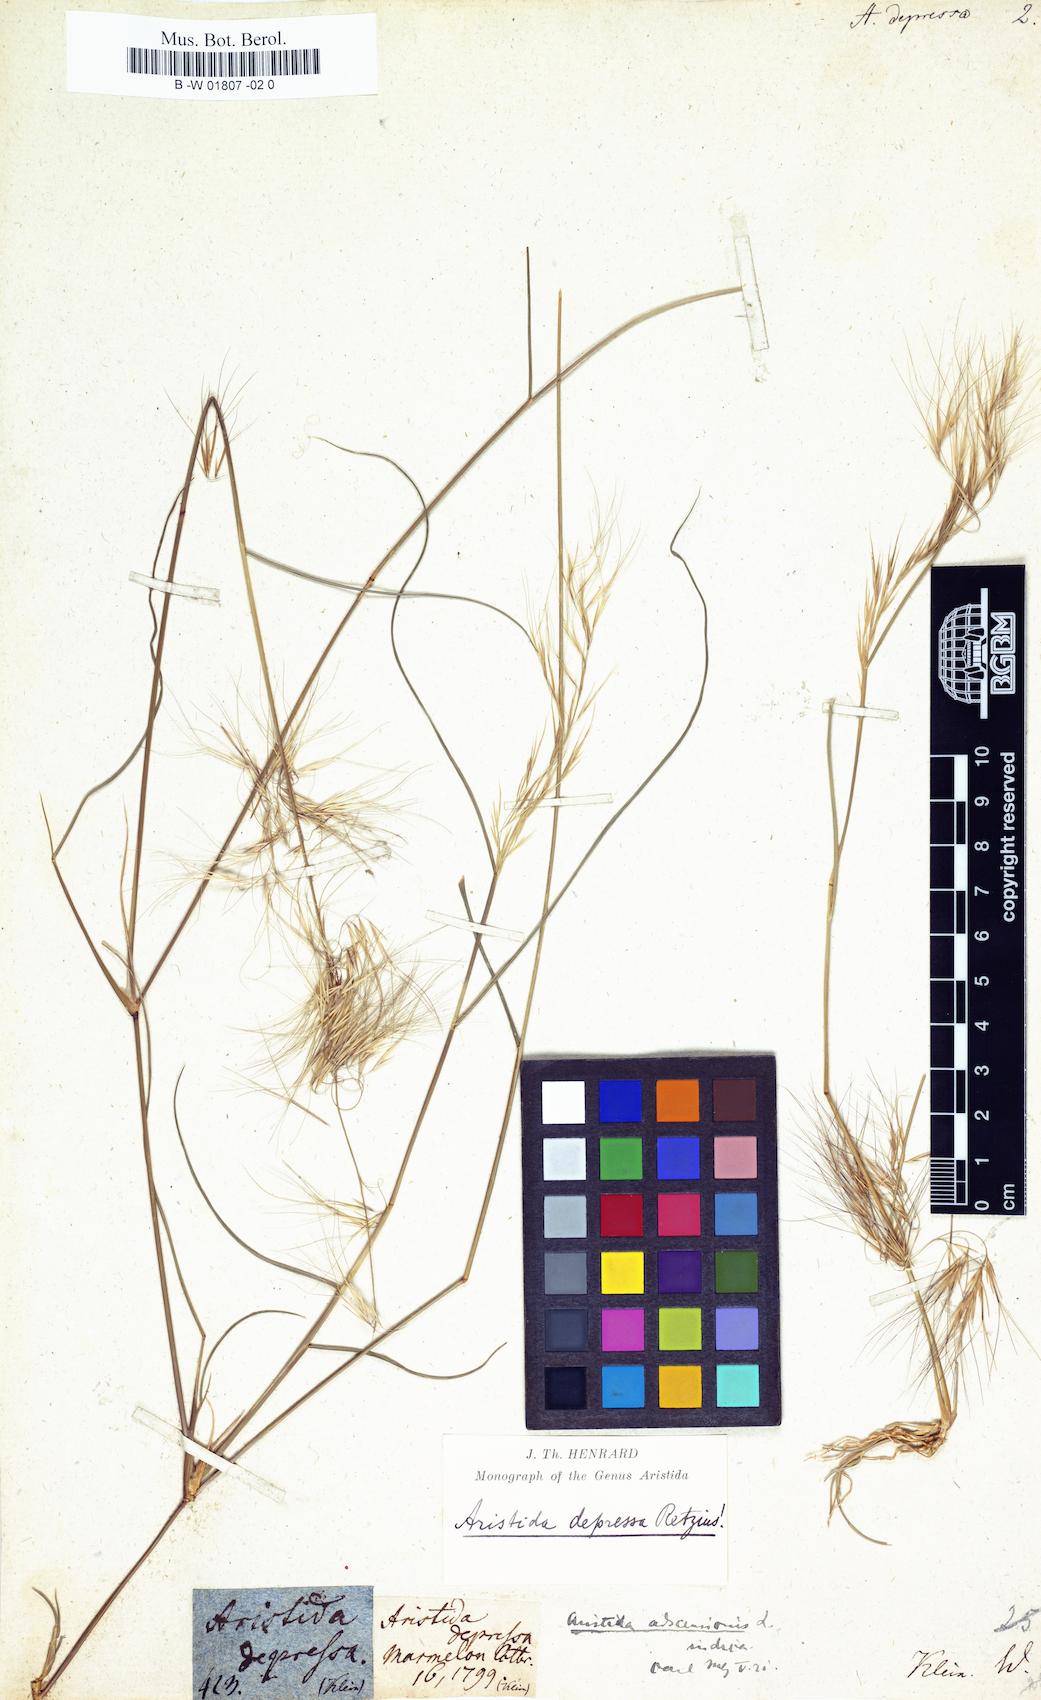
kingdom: Plantae
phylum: Tracheophyta
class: Liliopsida
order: Poales
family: Poaceae
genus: Aristida
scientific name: Aristida adscensionis
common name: Sixweeks threeawn
